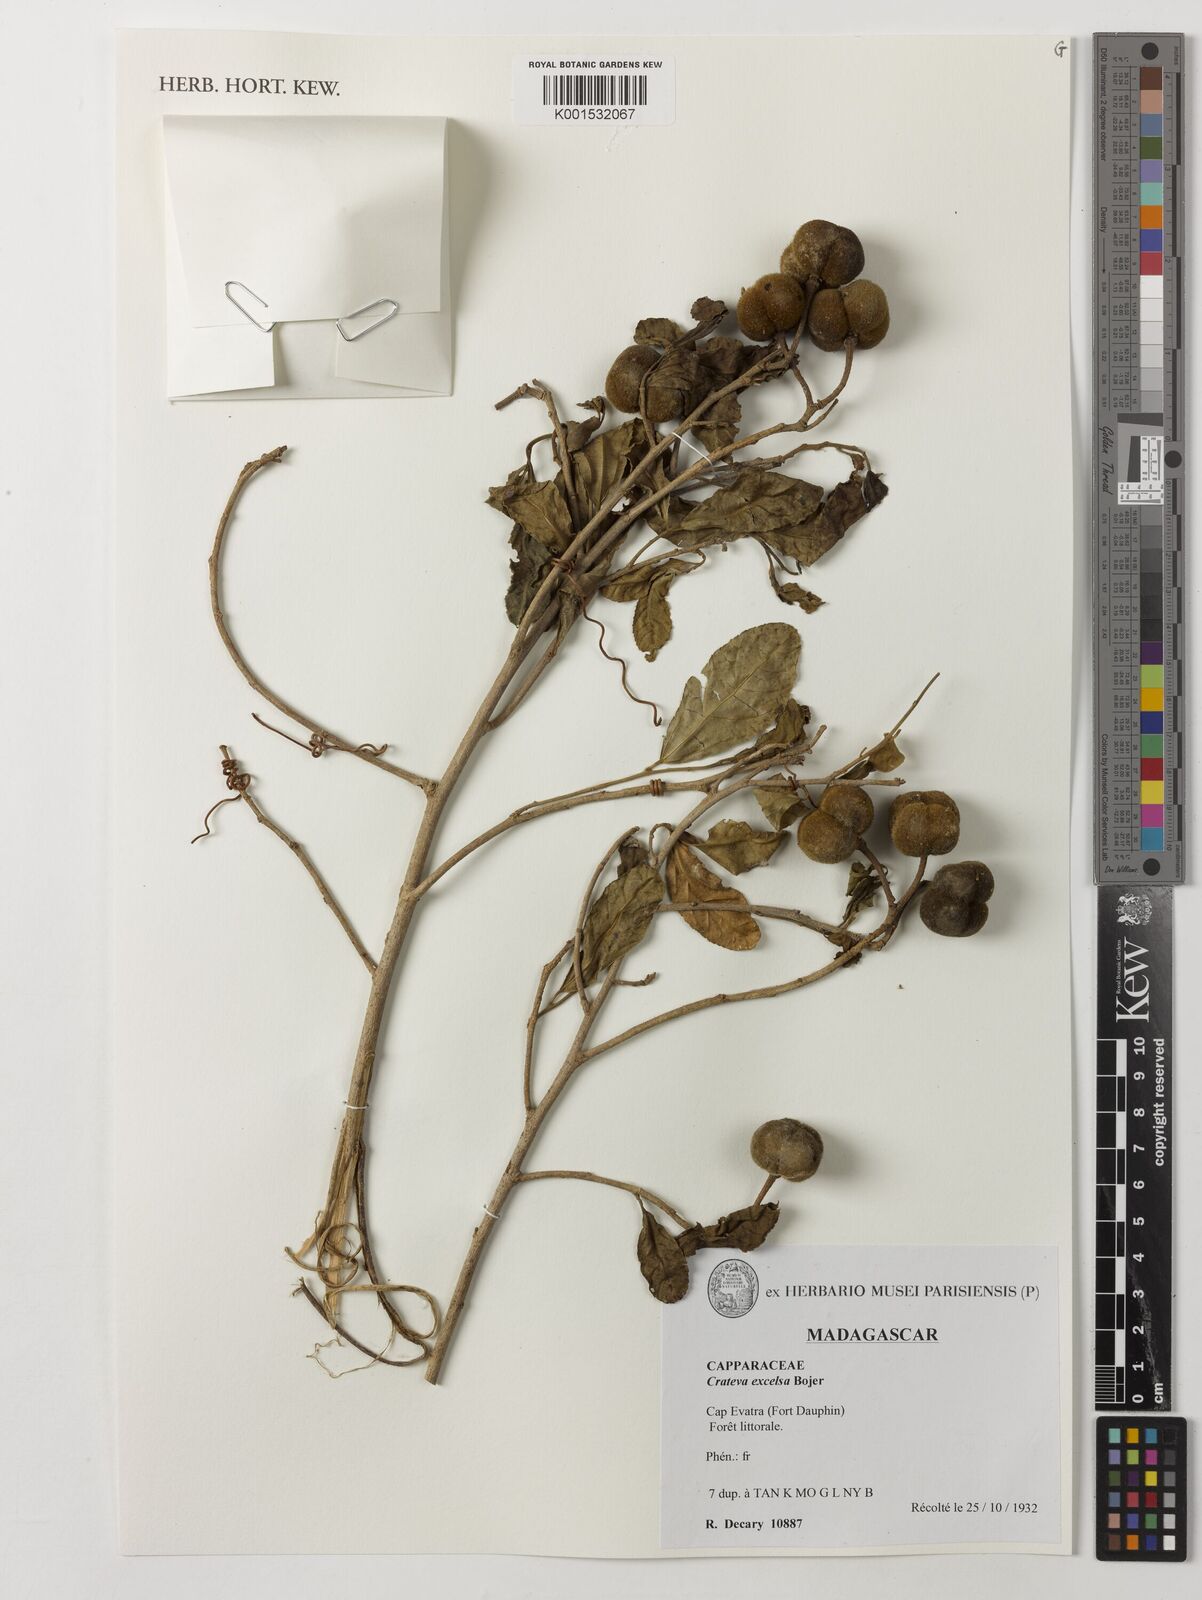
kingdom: Plantae
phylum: Tracheophyta
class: Magnoliopsida
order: Brassicales
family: Capparaceae
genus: Crateva
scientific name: Crateva excelsa
